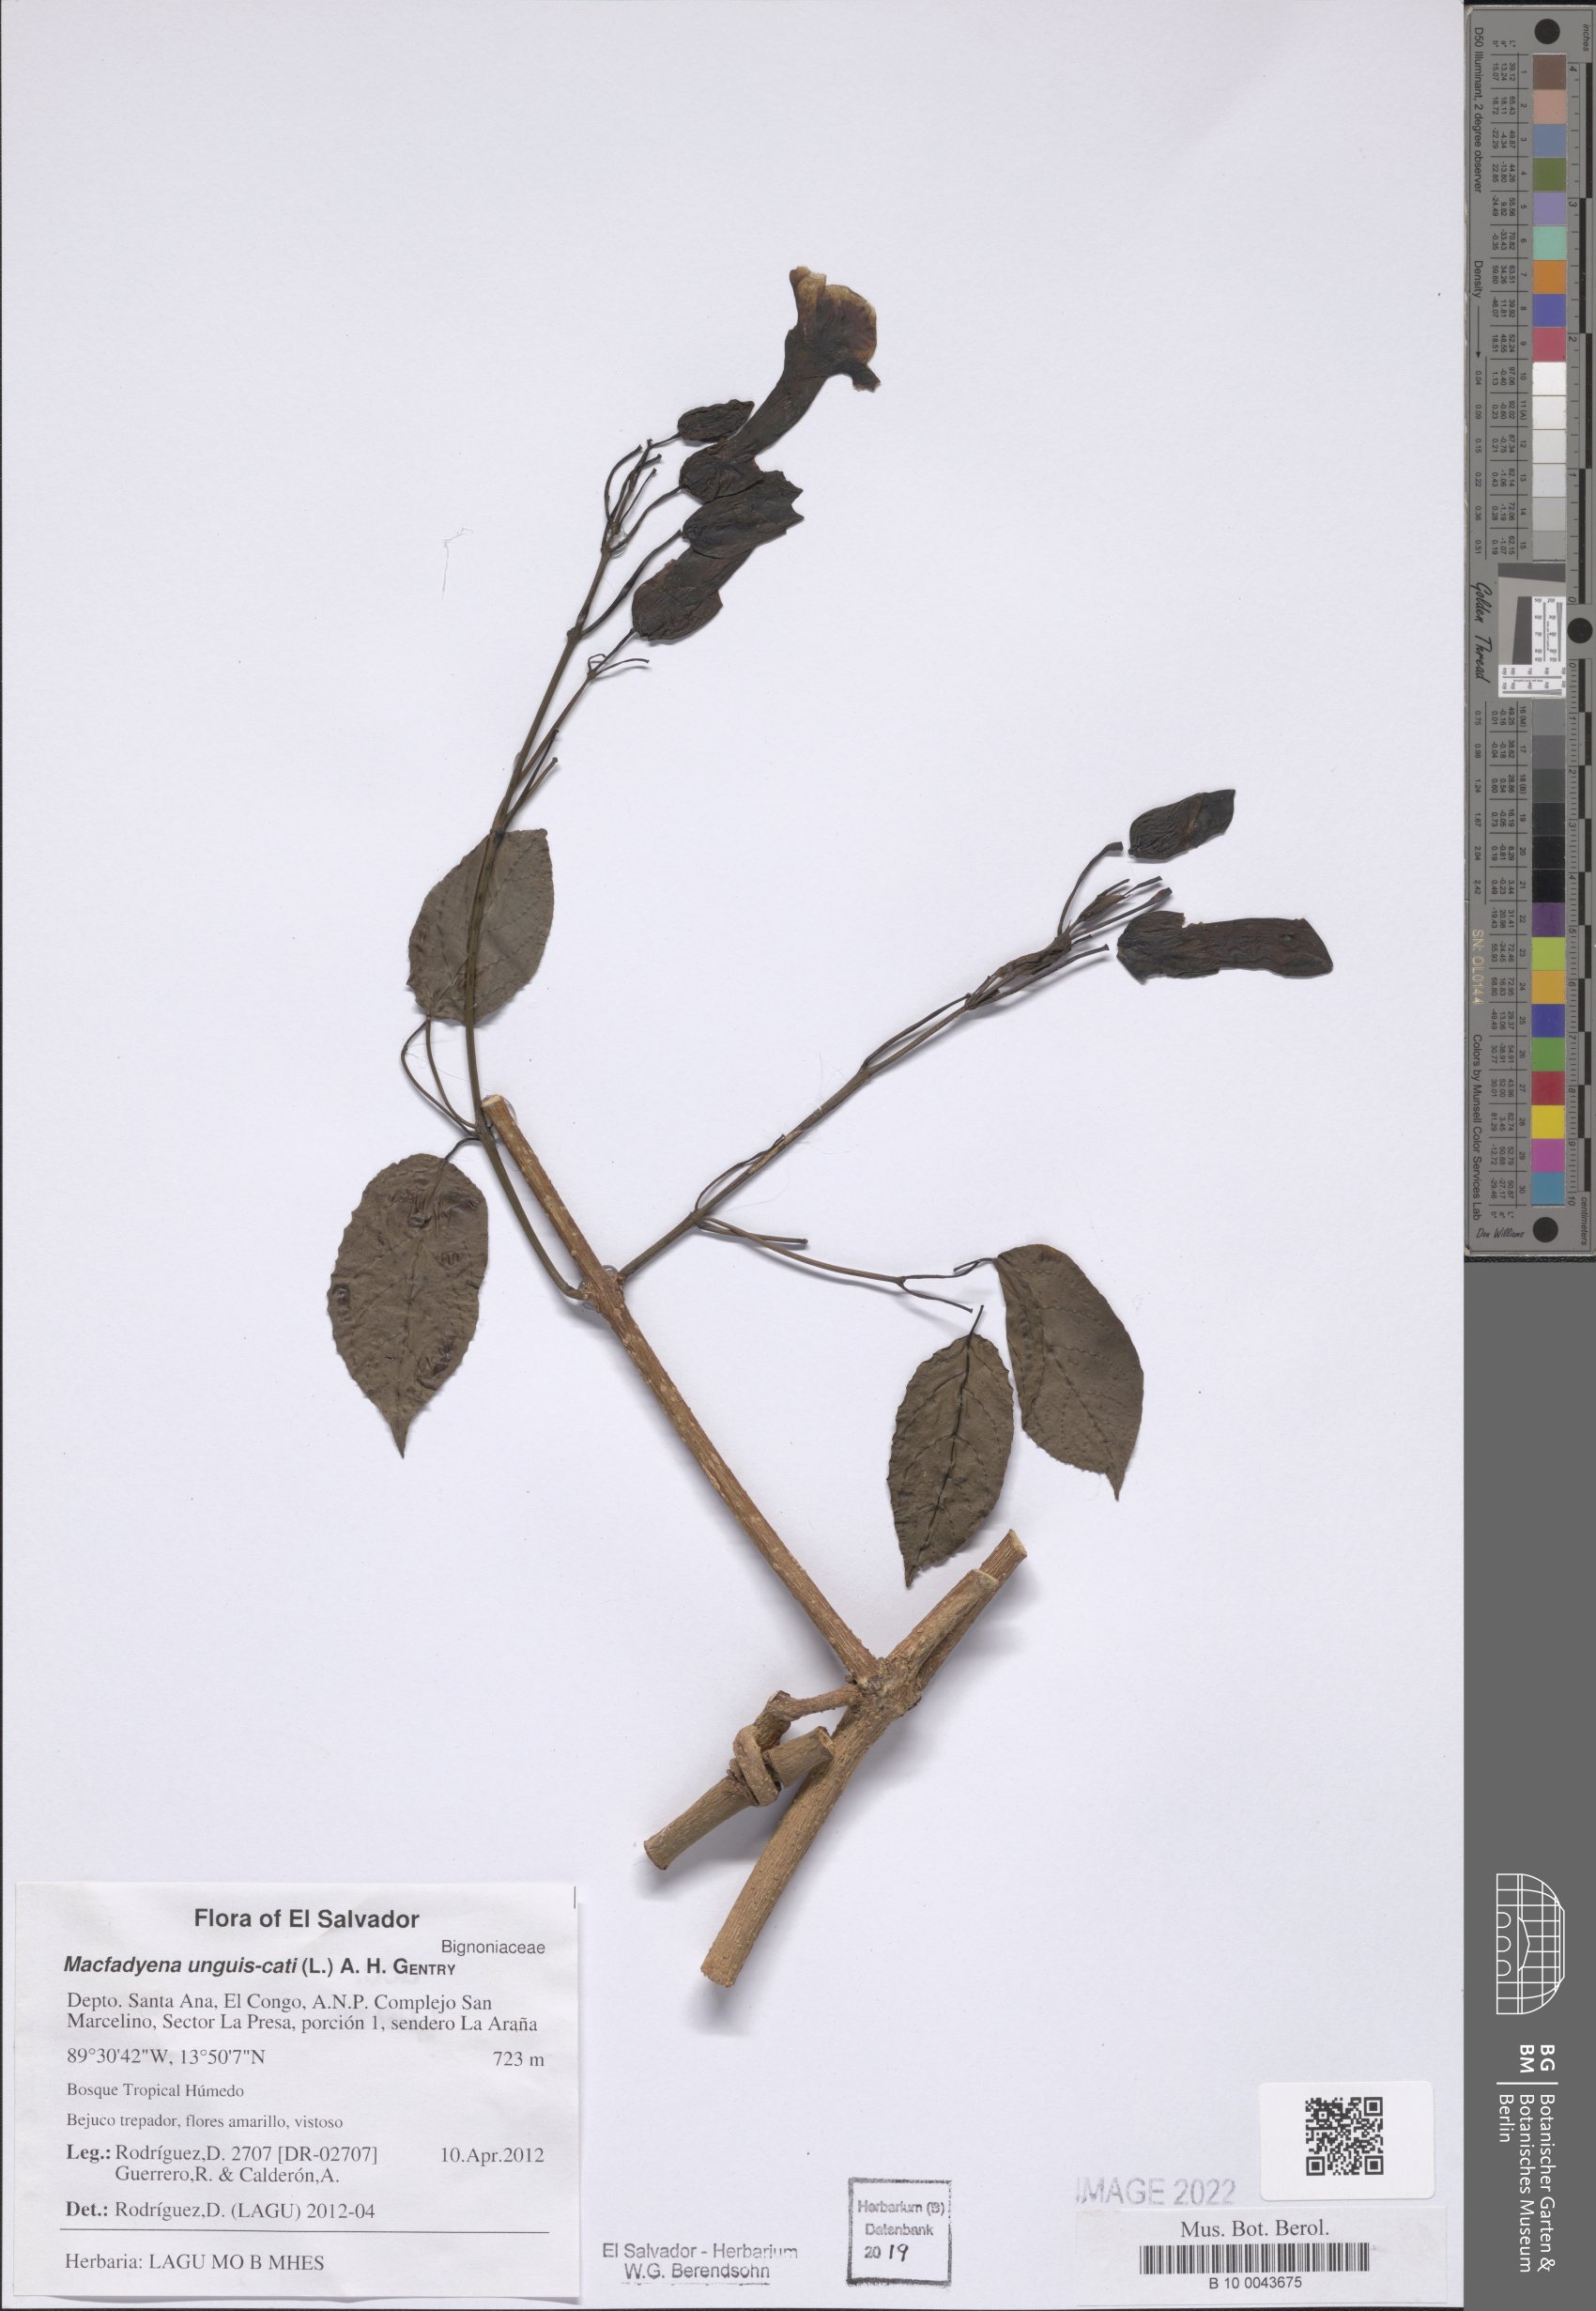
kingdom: Plantae
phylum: Tracheophyta
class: Magnoliopsida
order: Lamiales
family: Bignoniaceae
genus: Dolichandra
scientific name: Dolichandra unguis-cati
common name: Catclaw vine
